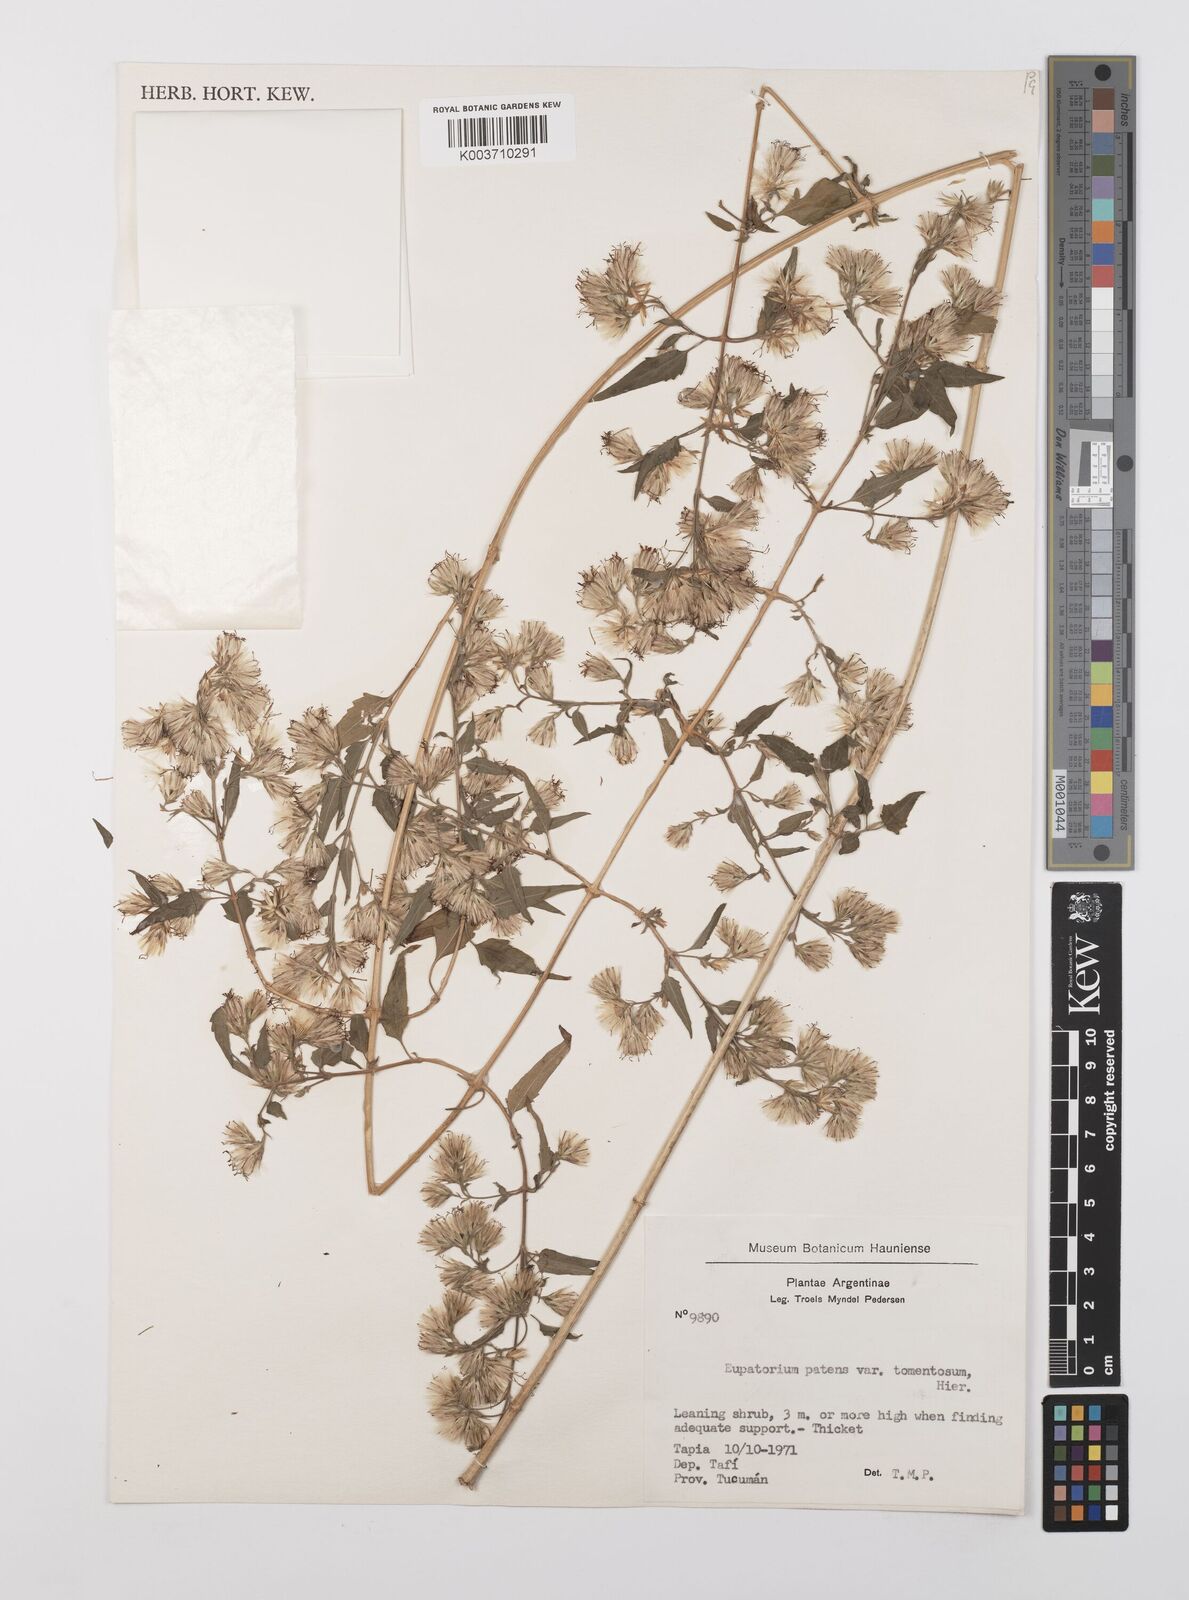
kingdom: Plantae
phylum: Tracheophyta
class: Magnoliopsida
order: Asterales
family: Asteraceae
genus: Austrobrickellia
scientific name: Austrobrickellia patens
